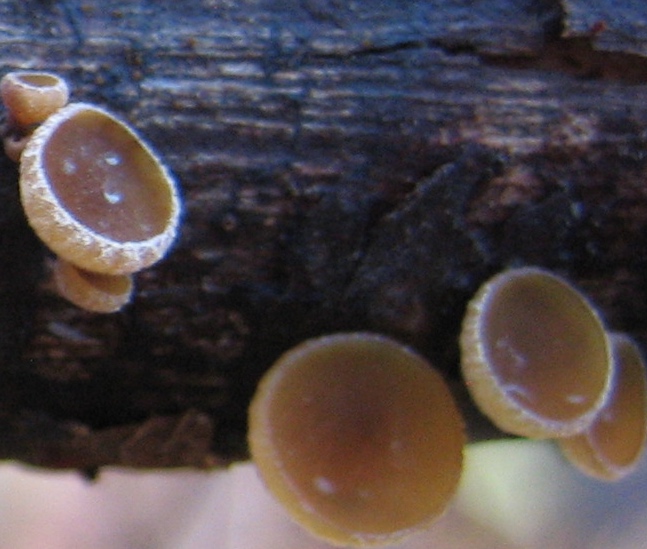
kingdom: Fungi
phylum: Ascomycota
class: Leotiomycetes
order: Helotiales
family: Rutstroemiaceae
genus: Rutstroemia
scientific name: Rutstroemia firma
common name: gren-brunskive
